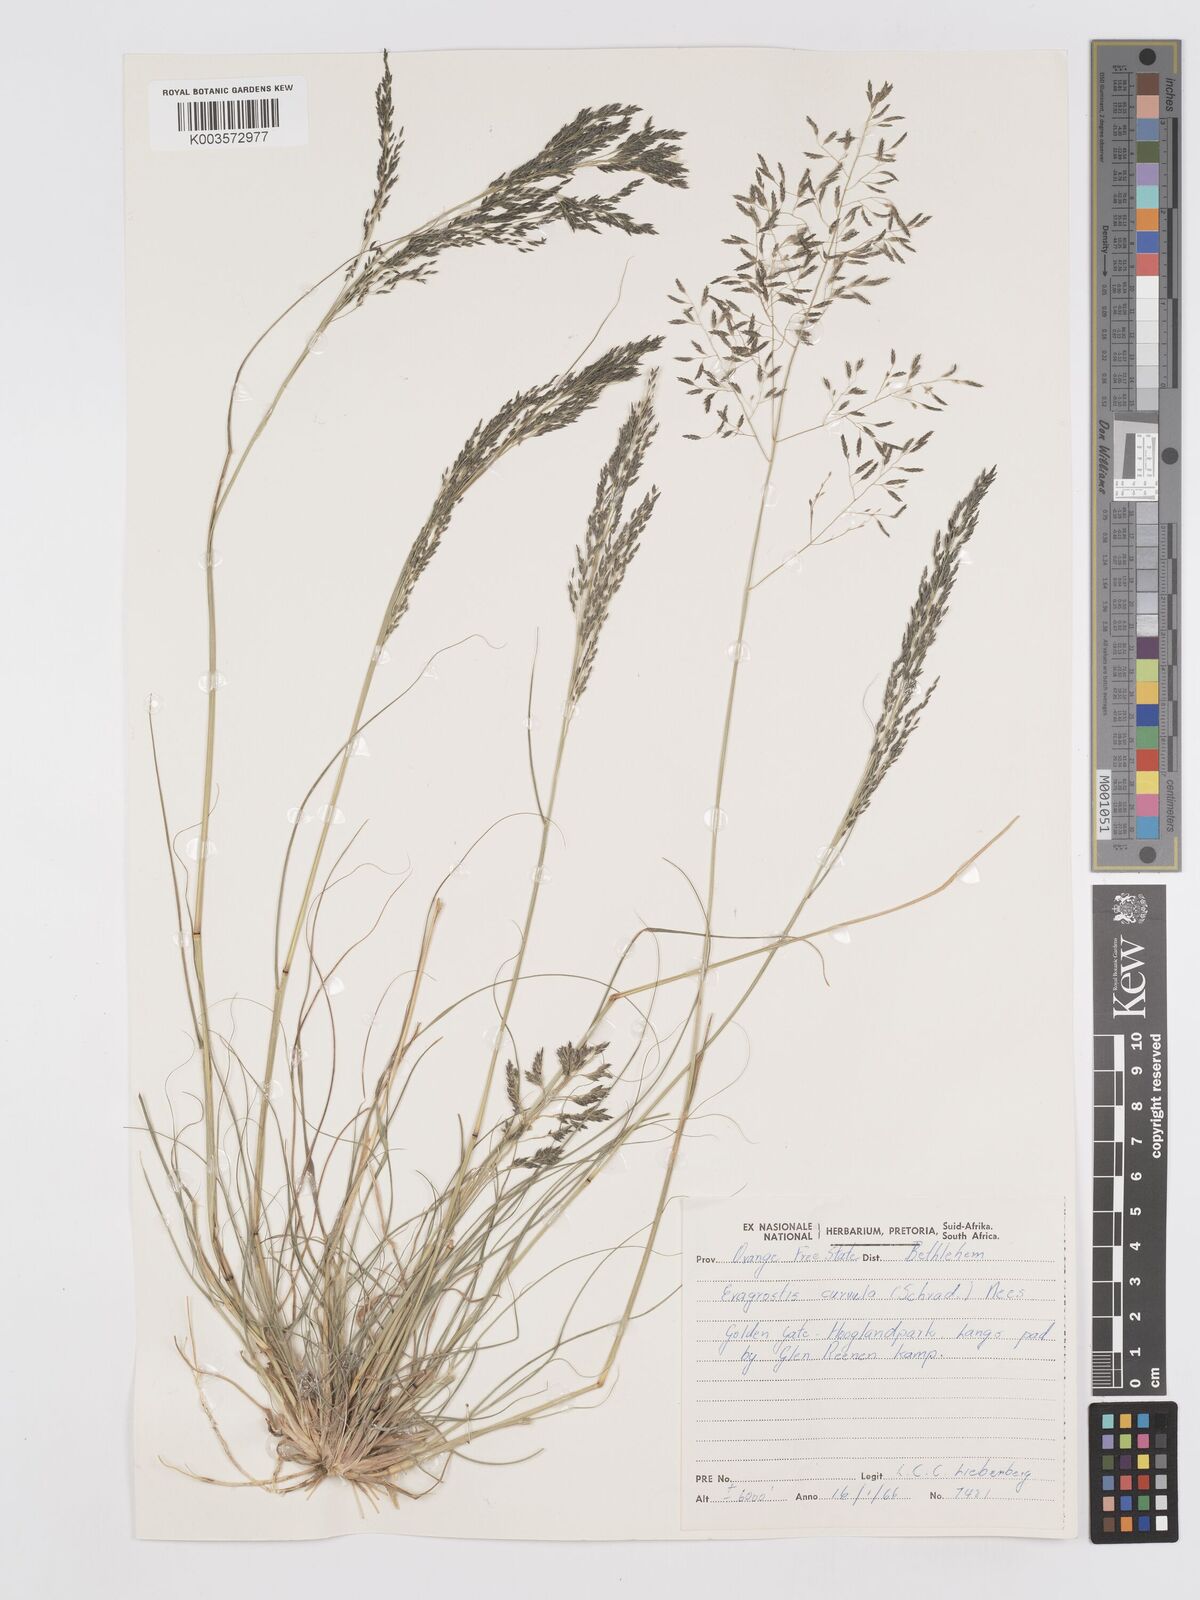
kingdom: Plantae
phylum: Tracheophyta
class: Liliopsida
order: Poales
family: Poaceae
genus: Eragrostis
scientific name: Eragrostis curvula
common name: African love-grass
